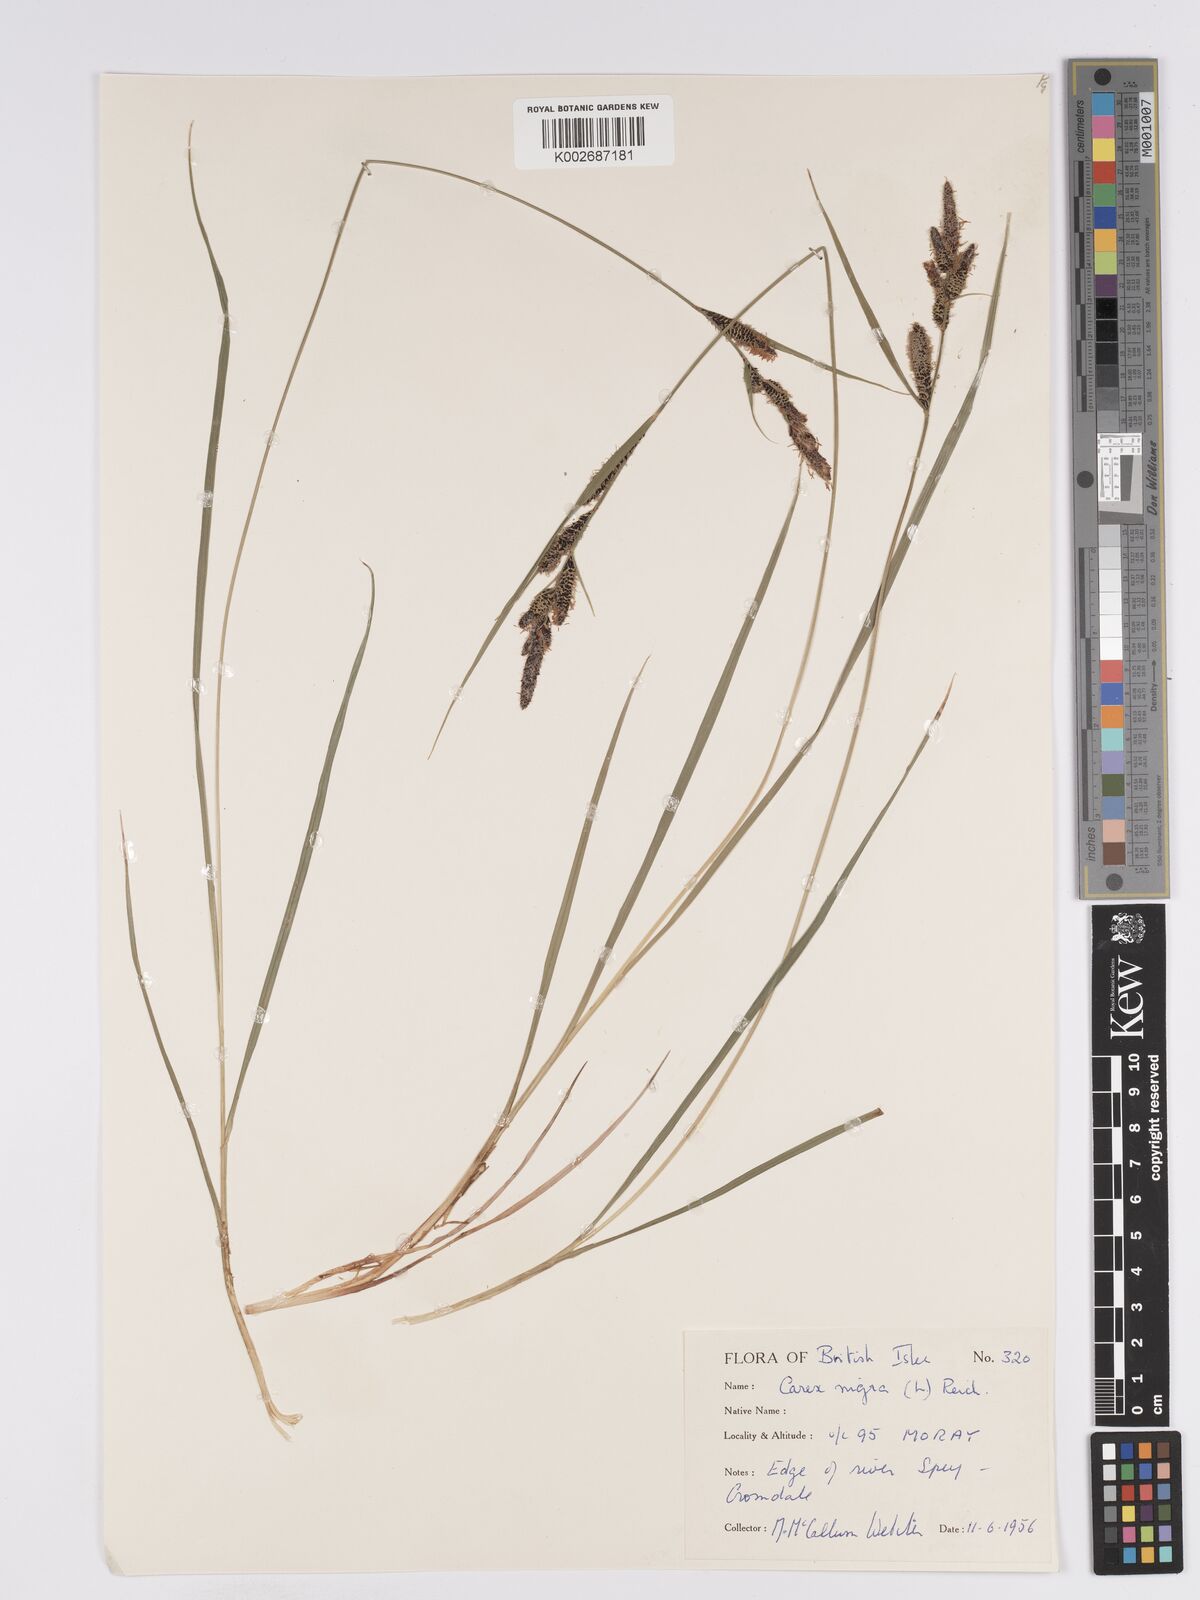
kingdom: Plantae
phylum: Tracheophyta
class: Liliopsida
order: Poales
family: Cyperaceae
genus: Carex
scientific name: Carex nigra
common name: Common sedge
